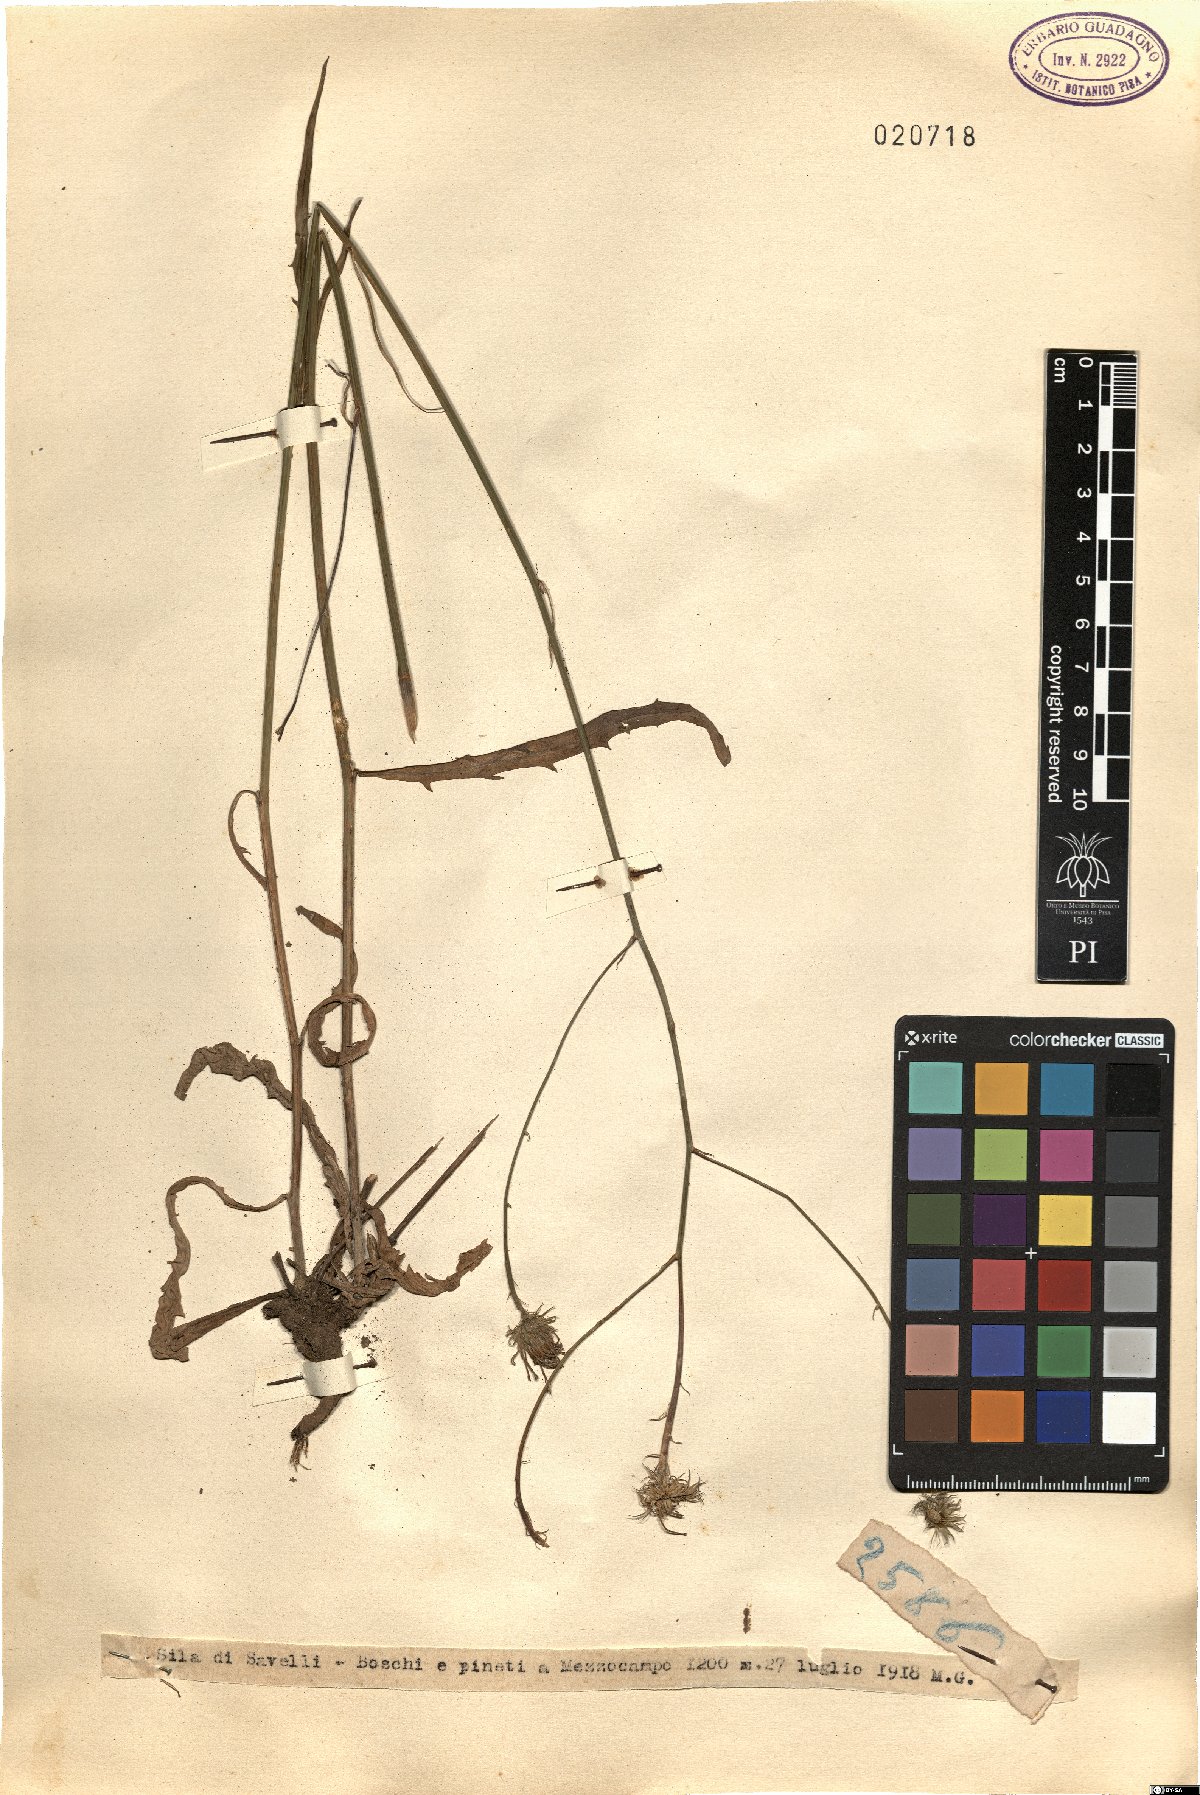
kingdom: Plantae
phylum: Tracheophyta
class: Magnoliopsida
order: Asterales
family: Asteraceae
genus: Tolpis
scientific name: Tolpis
